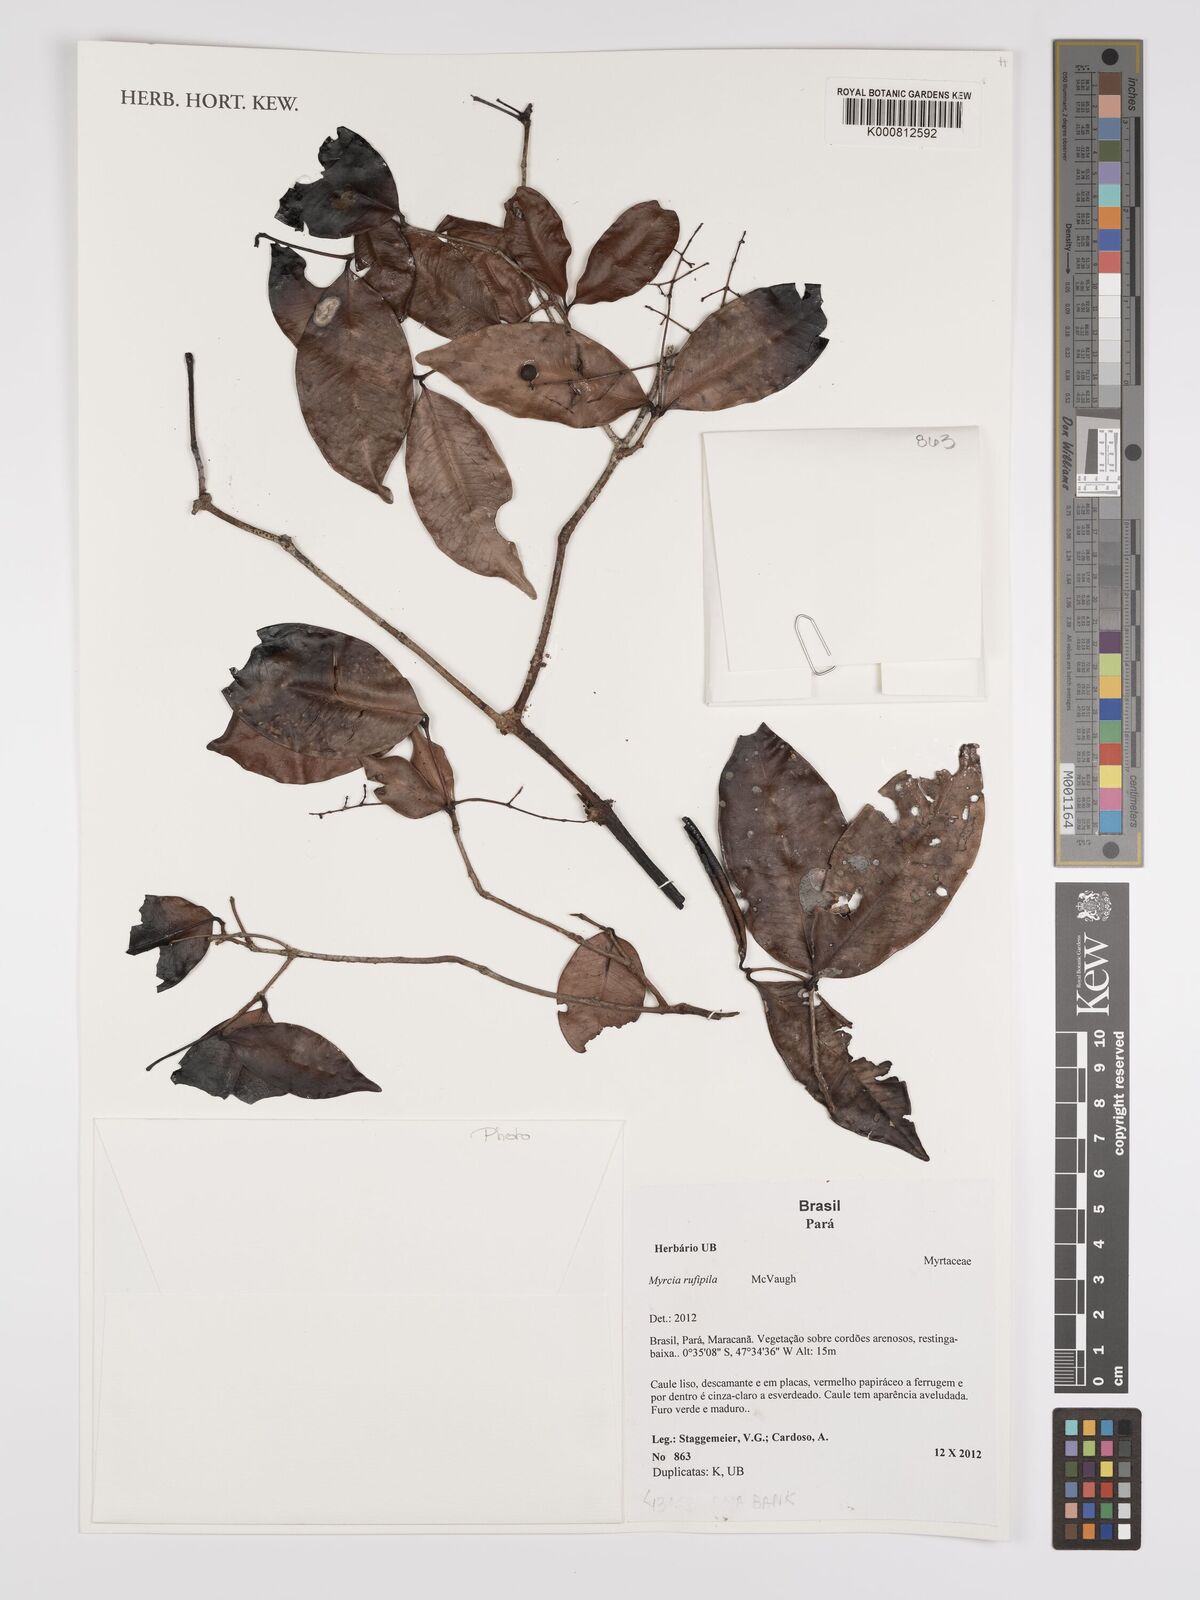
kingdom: Plantae
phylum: Tracheophyta
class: Magnoliopsida
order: Myrtales
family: Myrtaceae
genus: Myrcia
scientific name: Myrcia rufipila
